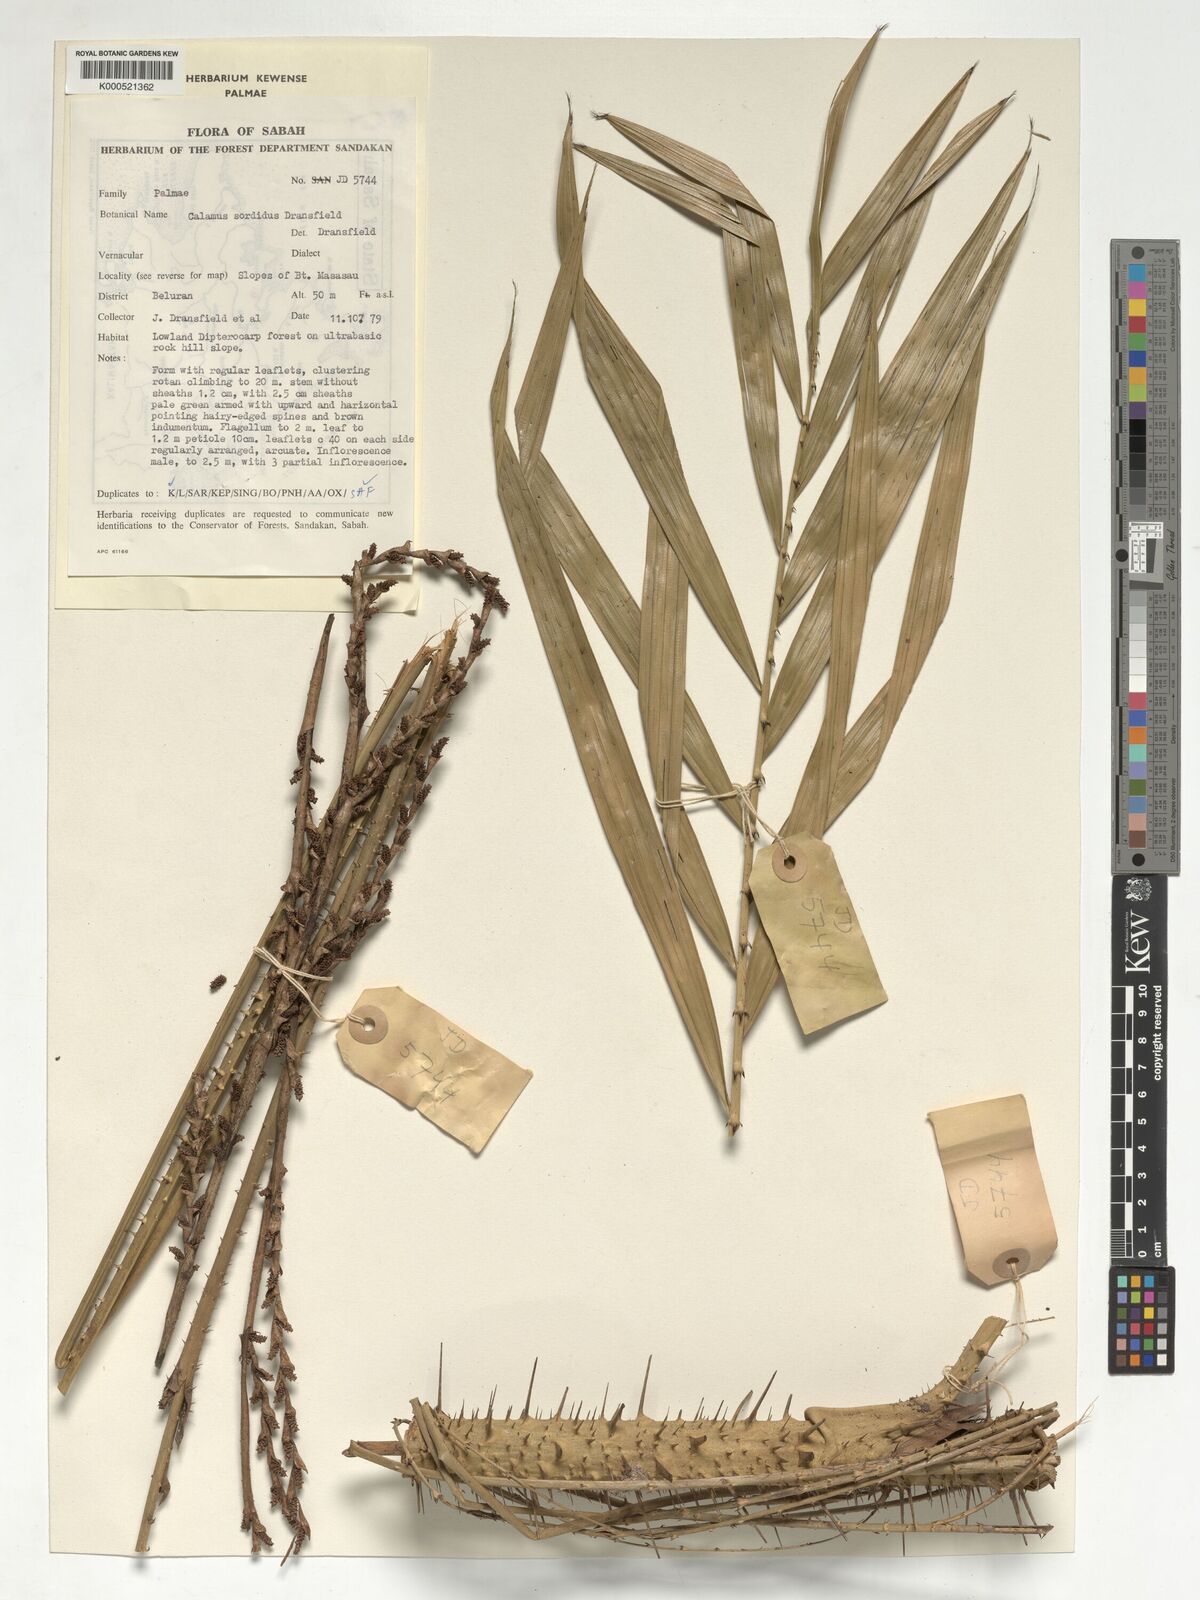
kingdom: Plantae
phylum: Tracheophyta
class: Liliopsida
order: Arecales
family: Arecaceae
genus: Calamus
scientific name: Calamus sordidus
